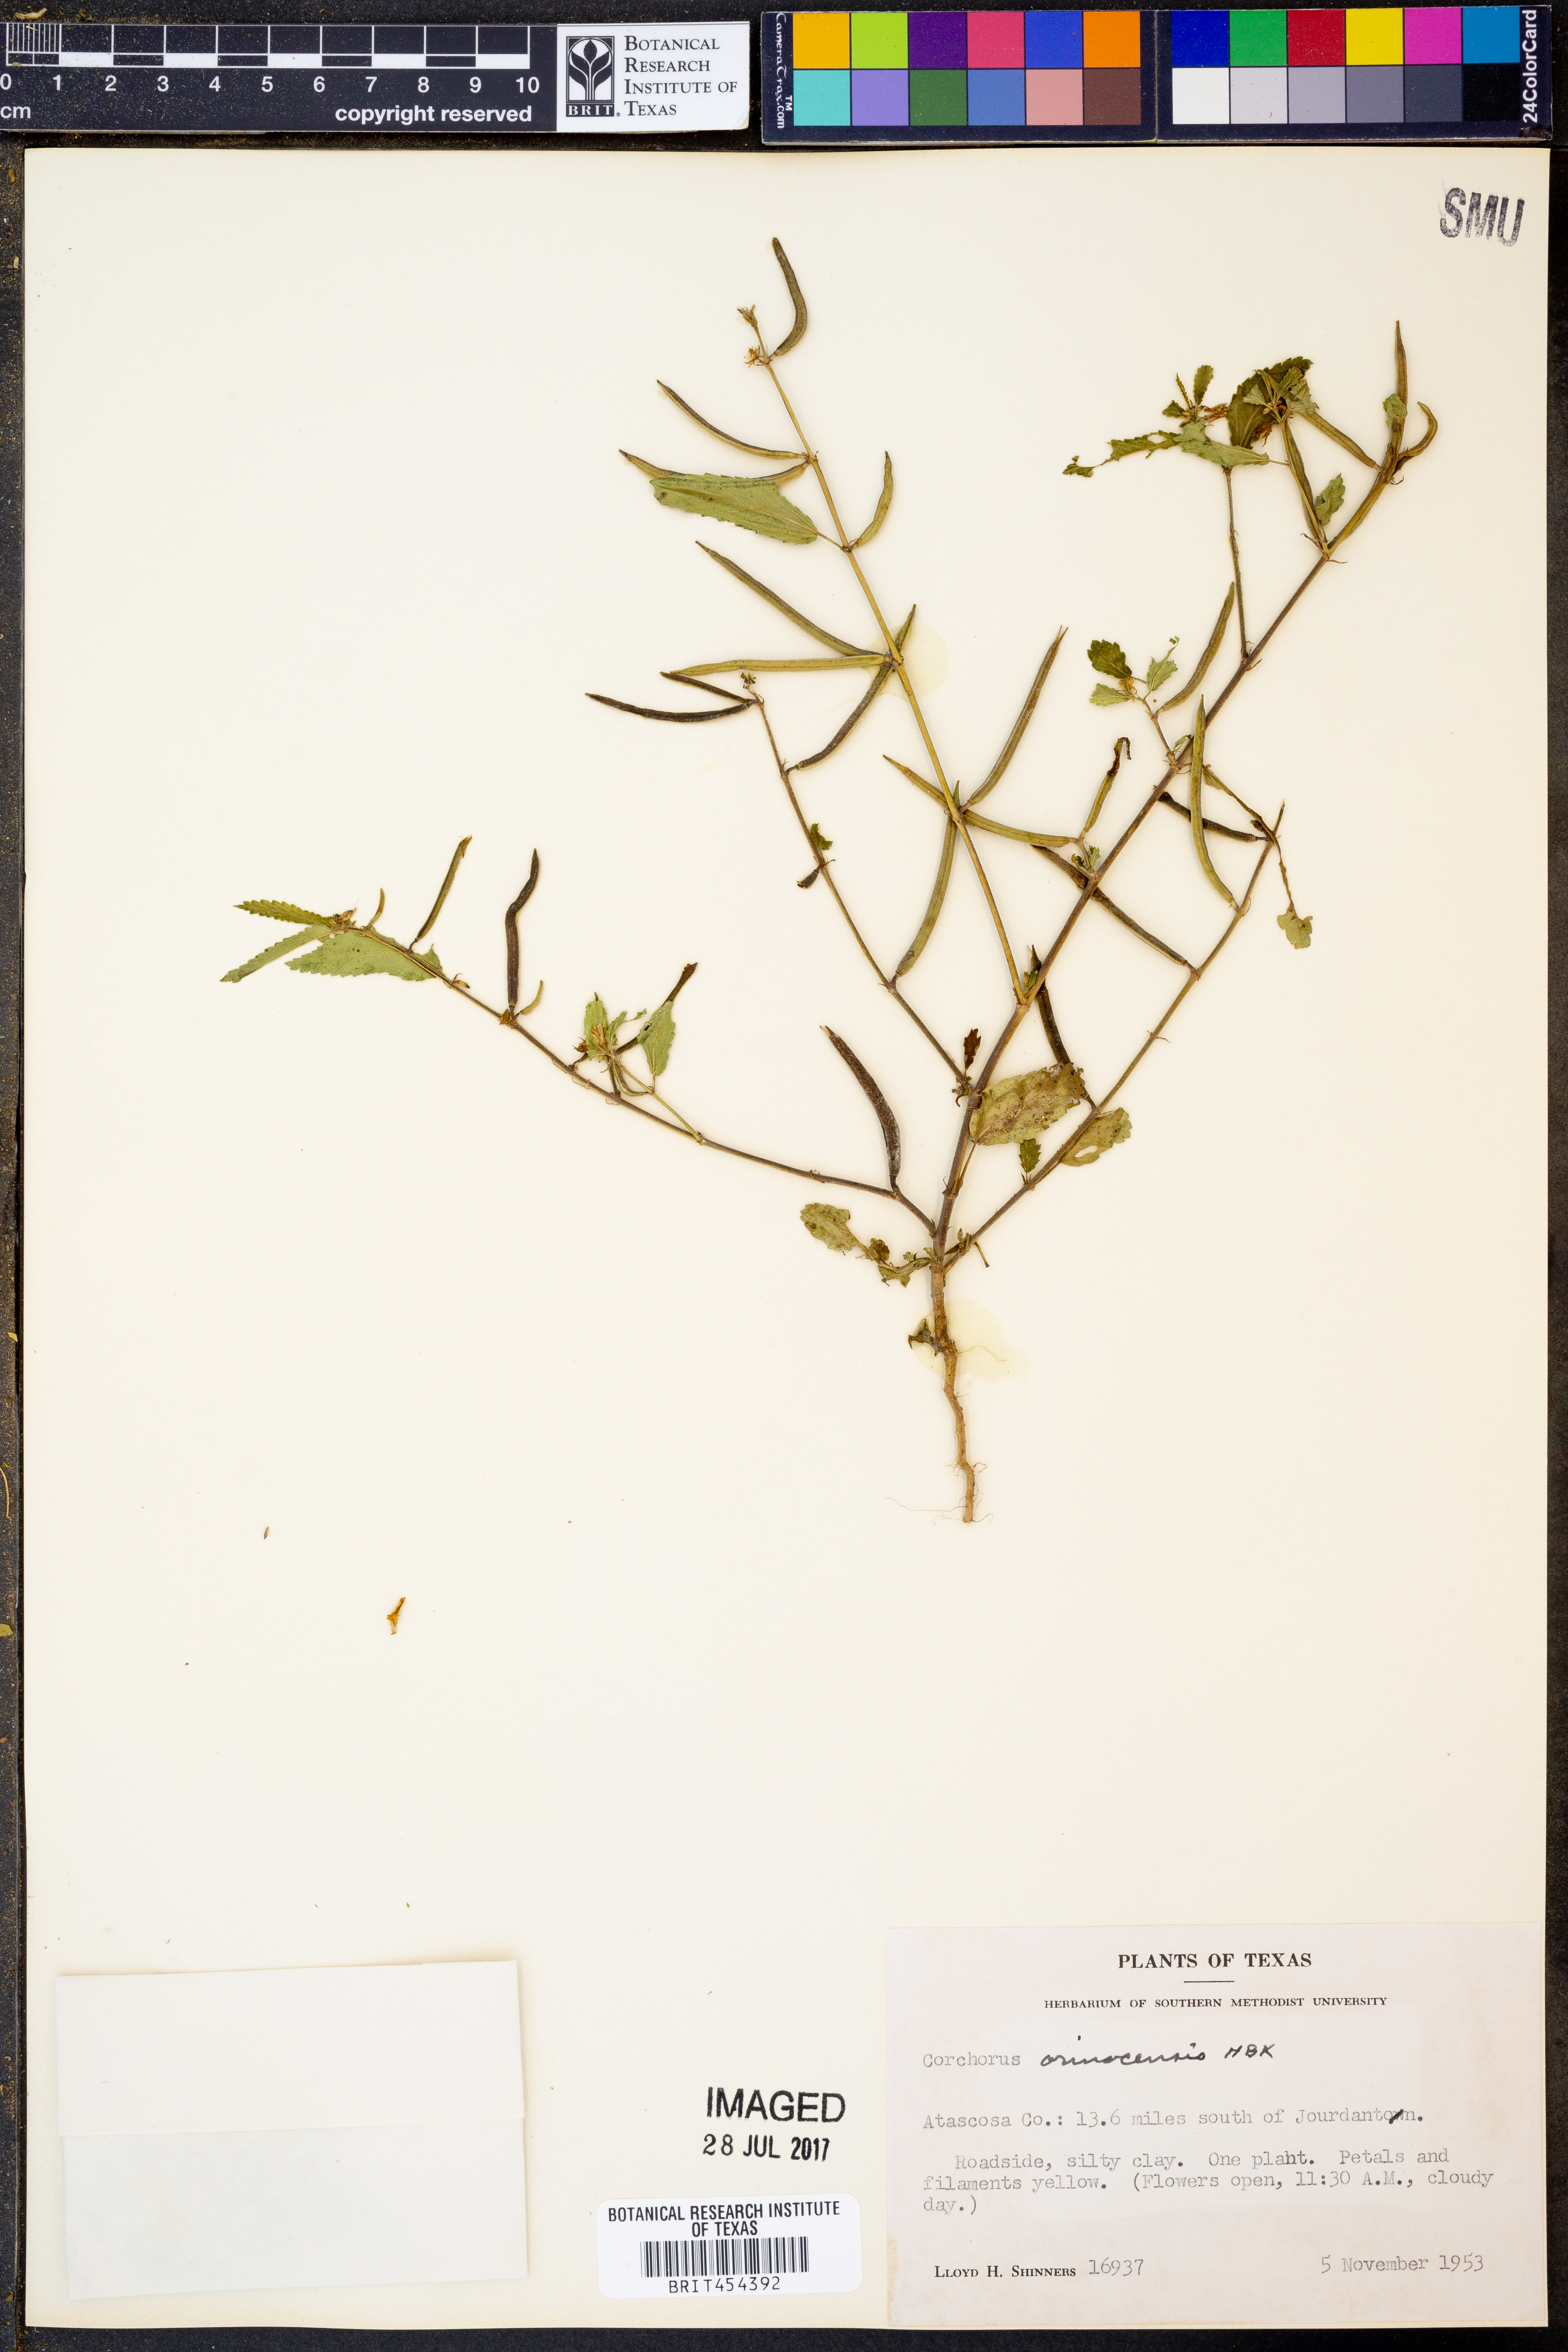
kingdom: Plantae
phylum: Tracheophyta
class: Magnoliopsida
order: Malvales
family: Malvaceae
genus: Corchorus
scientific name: Corchorus orinocensis
